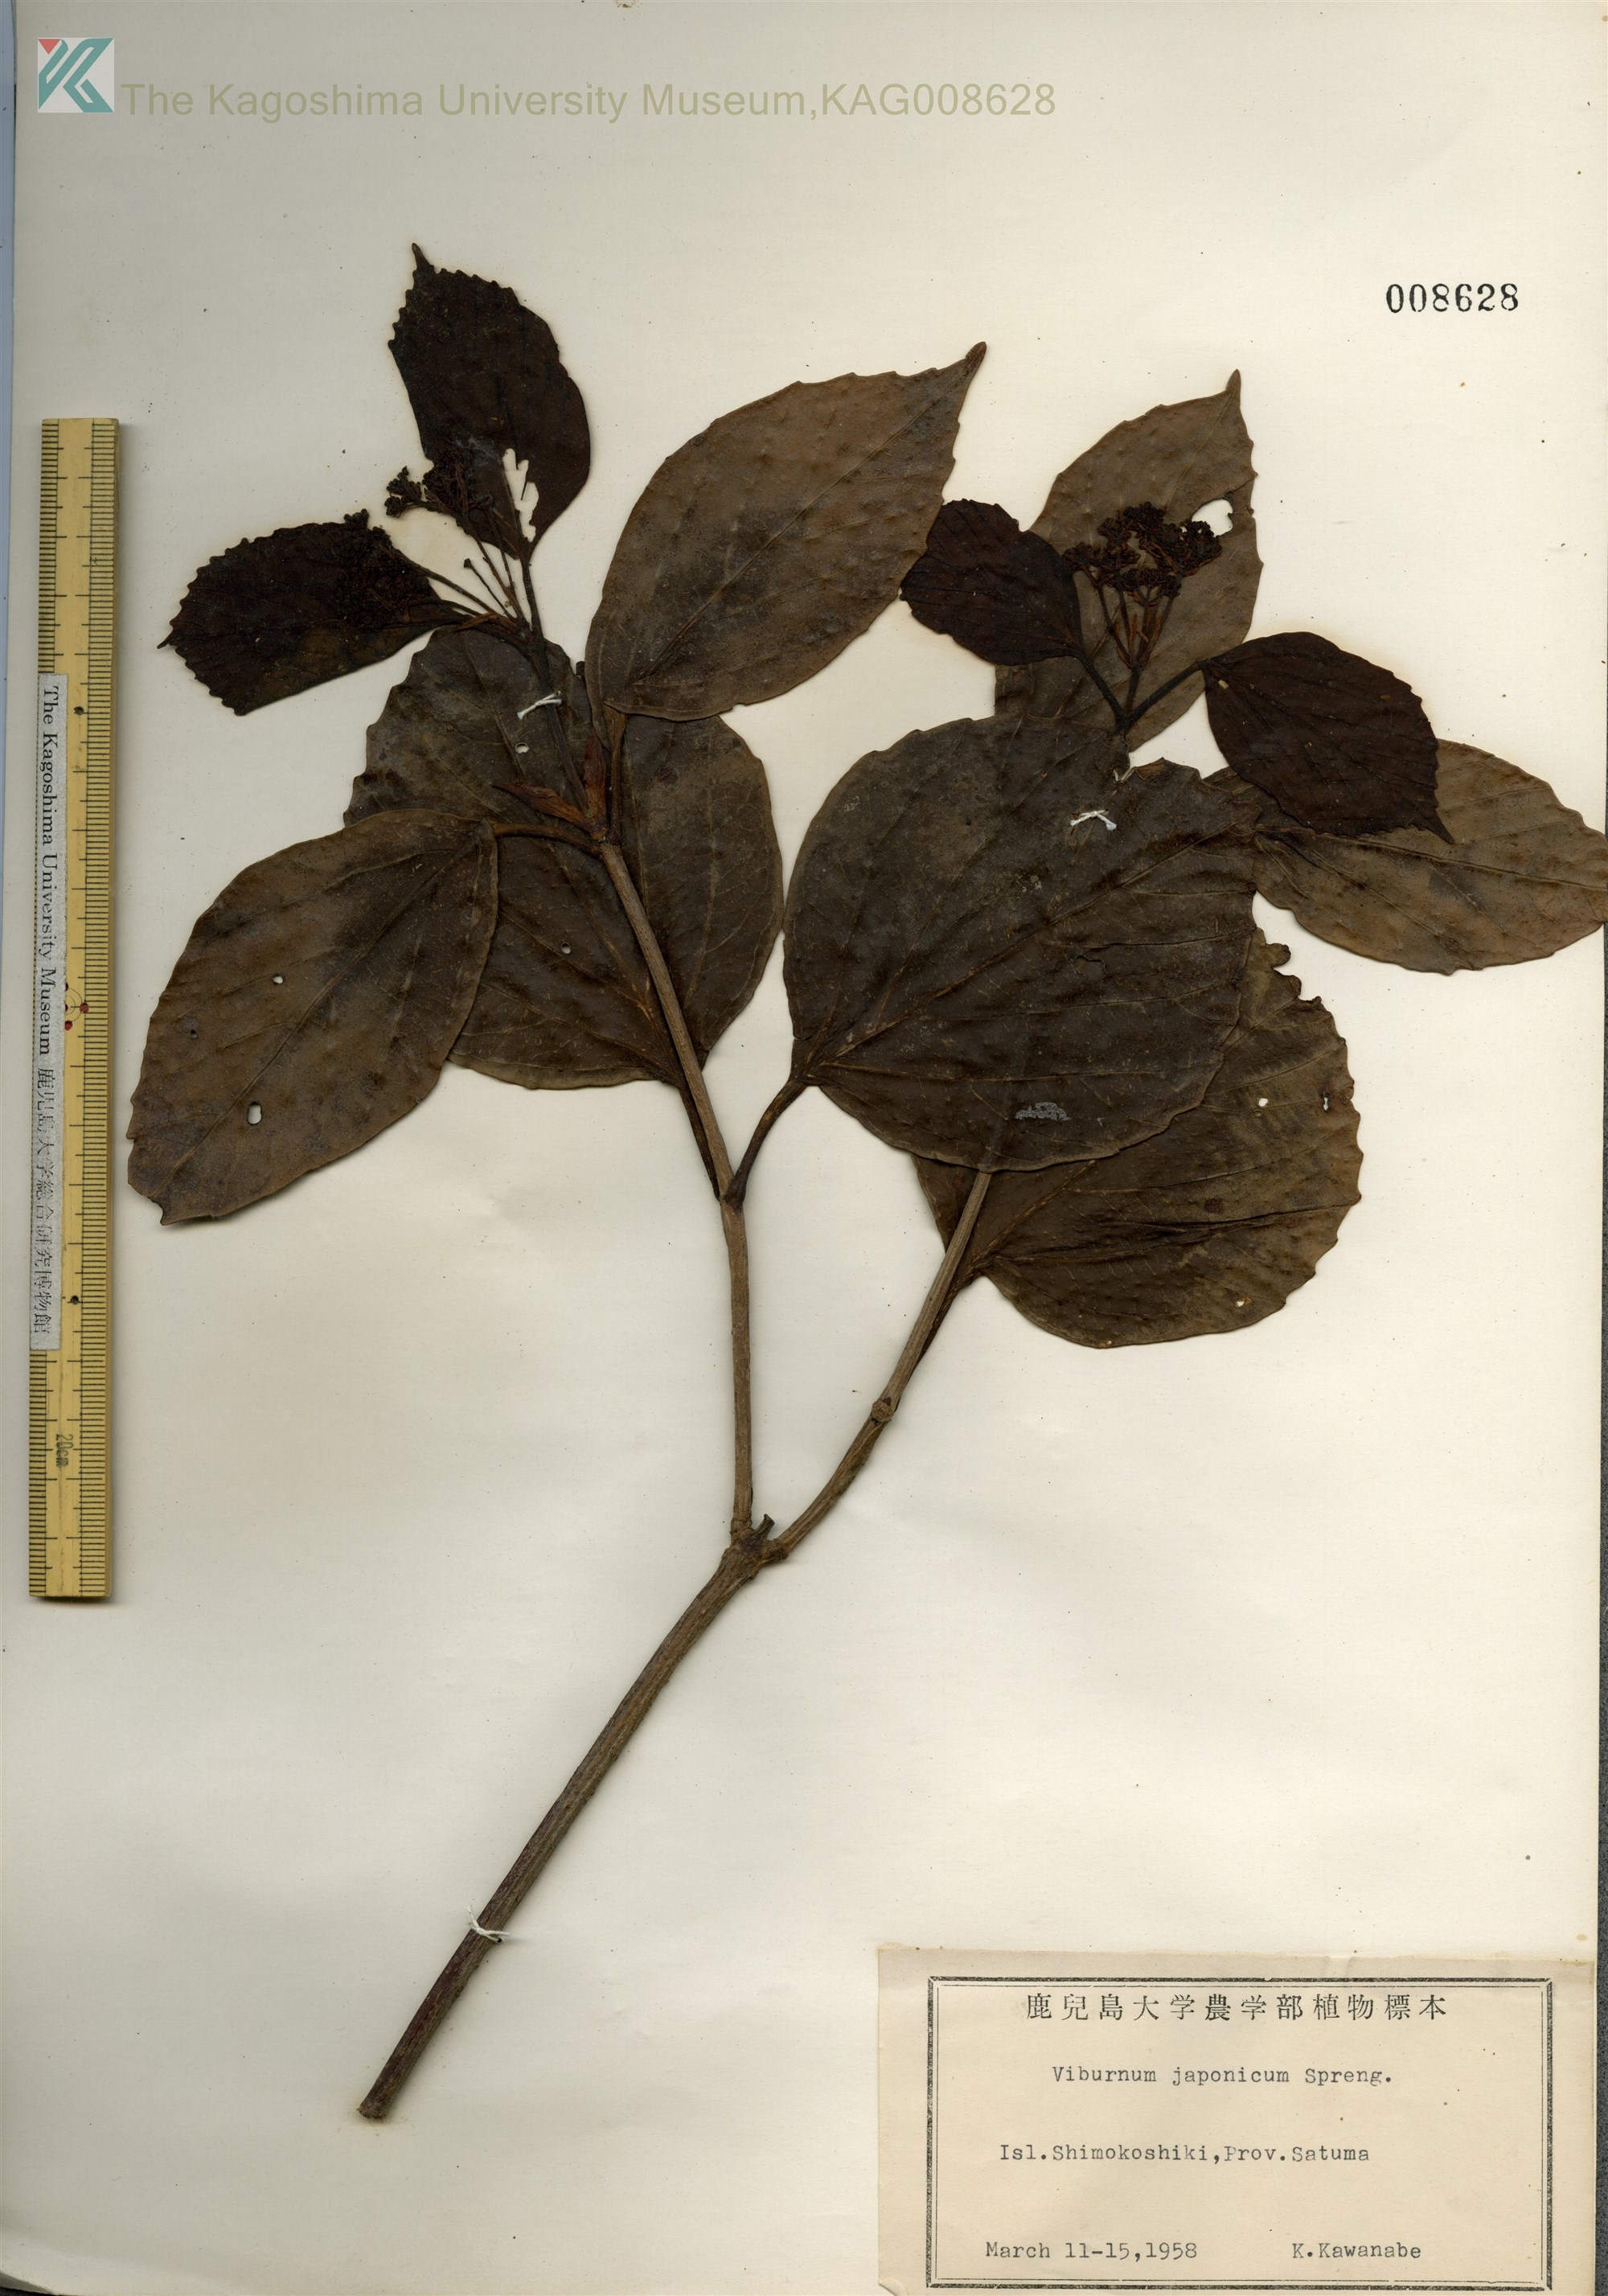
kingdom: Plantae
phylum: Tracheophyta
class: Magnoliopsida
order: Dipsacales
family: Viburnaceae
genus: Viburnum
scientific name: Viburnum japonicum
